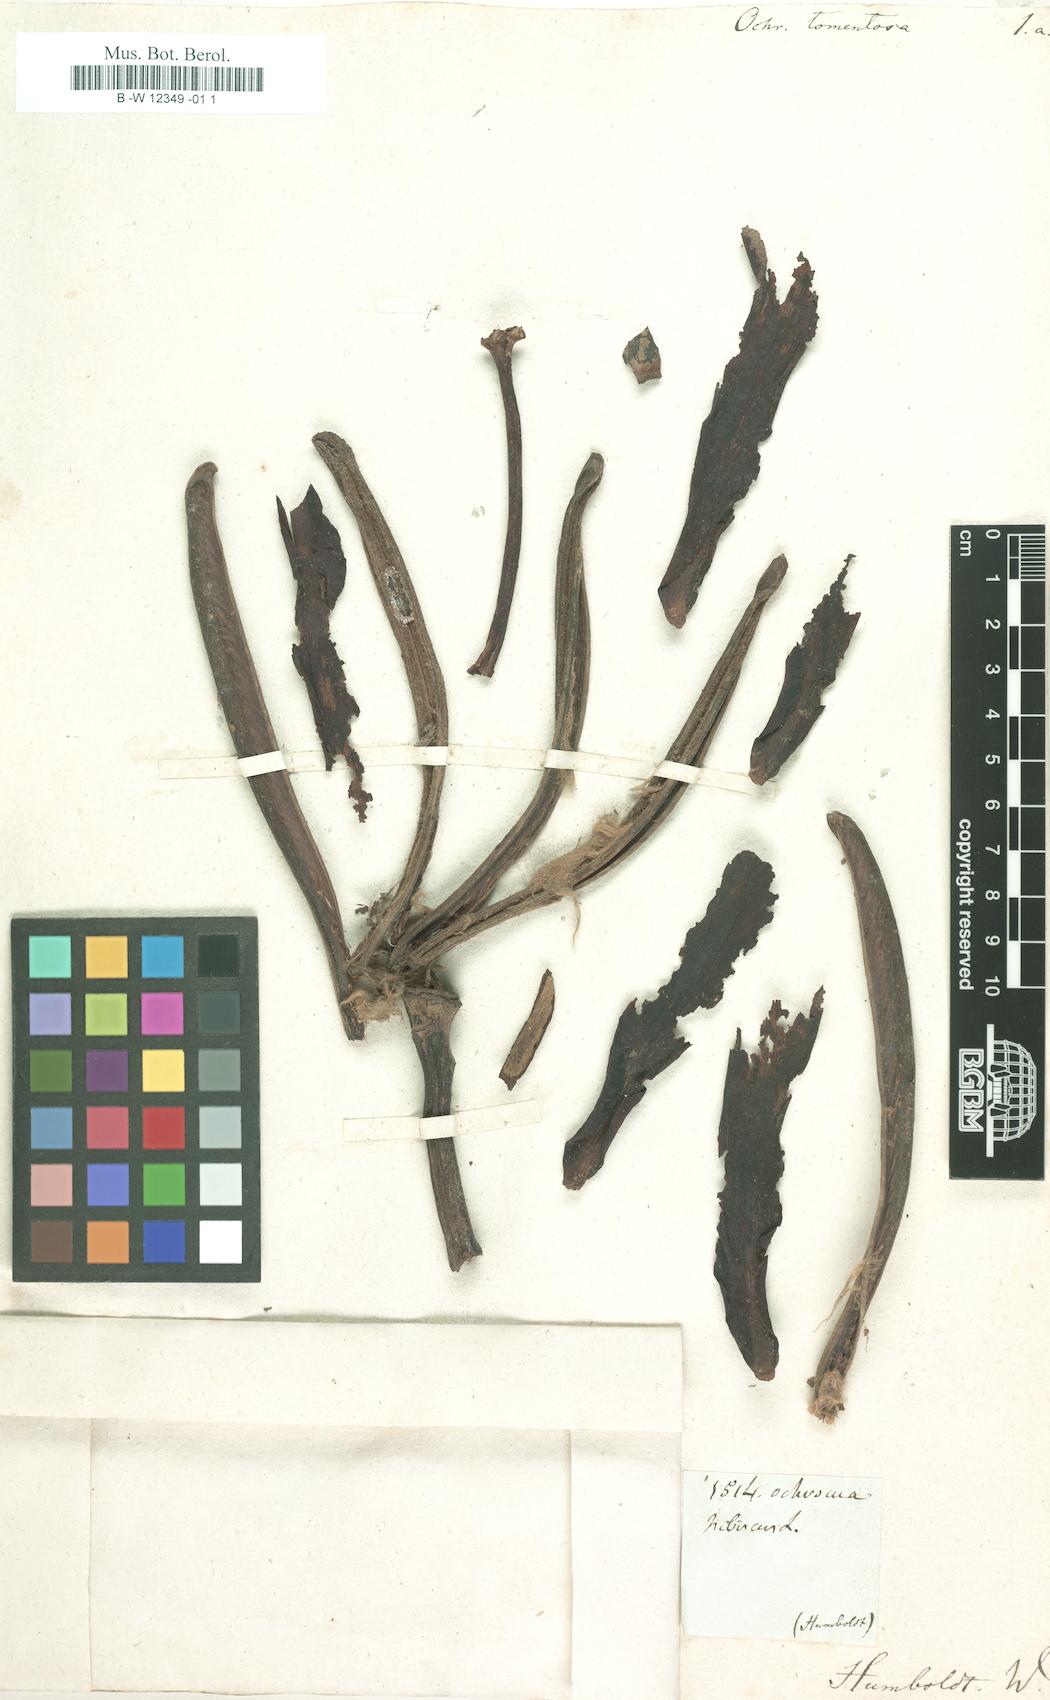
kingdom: Plantae
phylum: Tracheophyta
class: Magnoliopsida
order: Malvales
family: Malvaceae
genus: Ochroma
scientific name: Ochroma pyramidale
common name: Balsa
